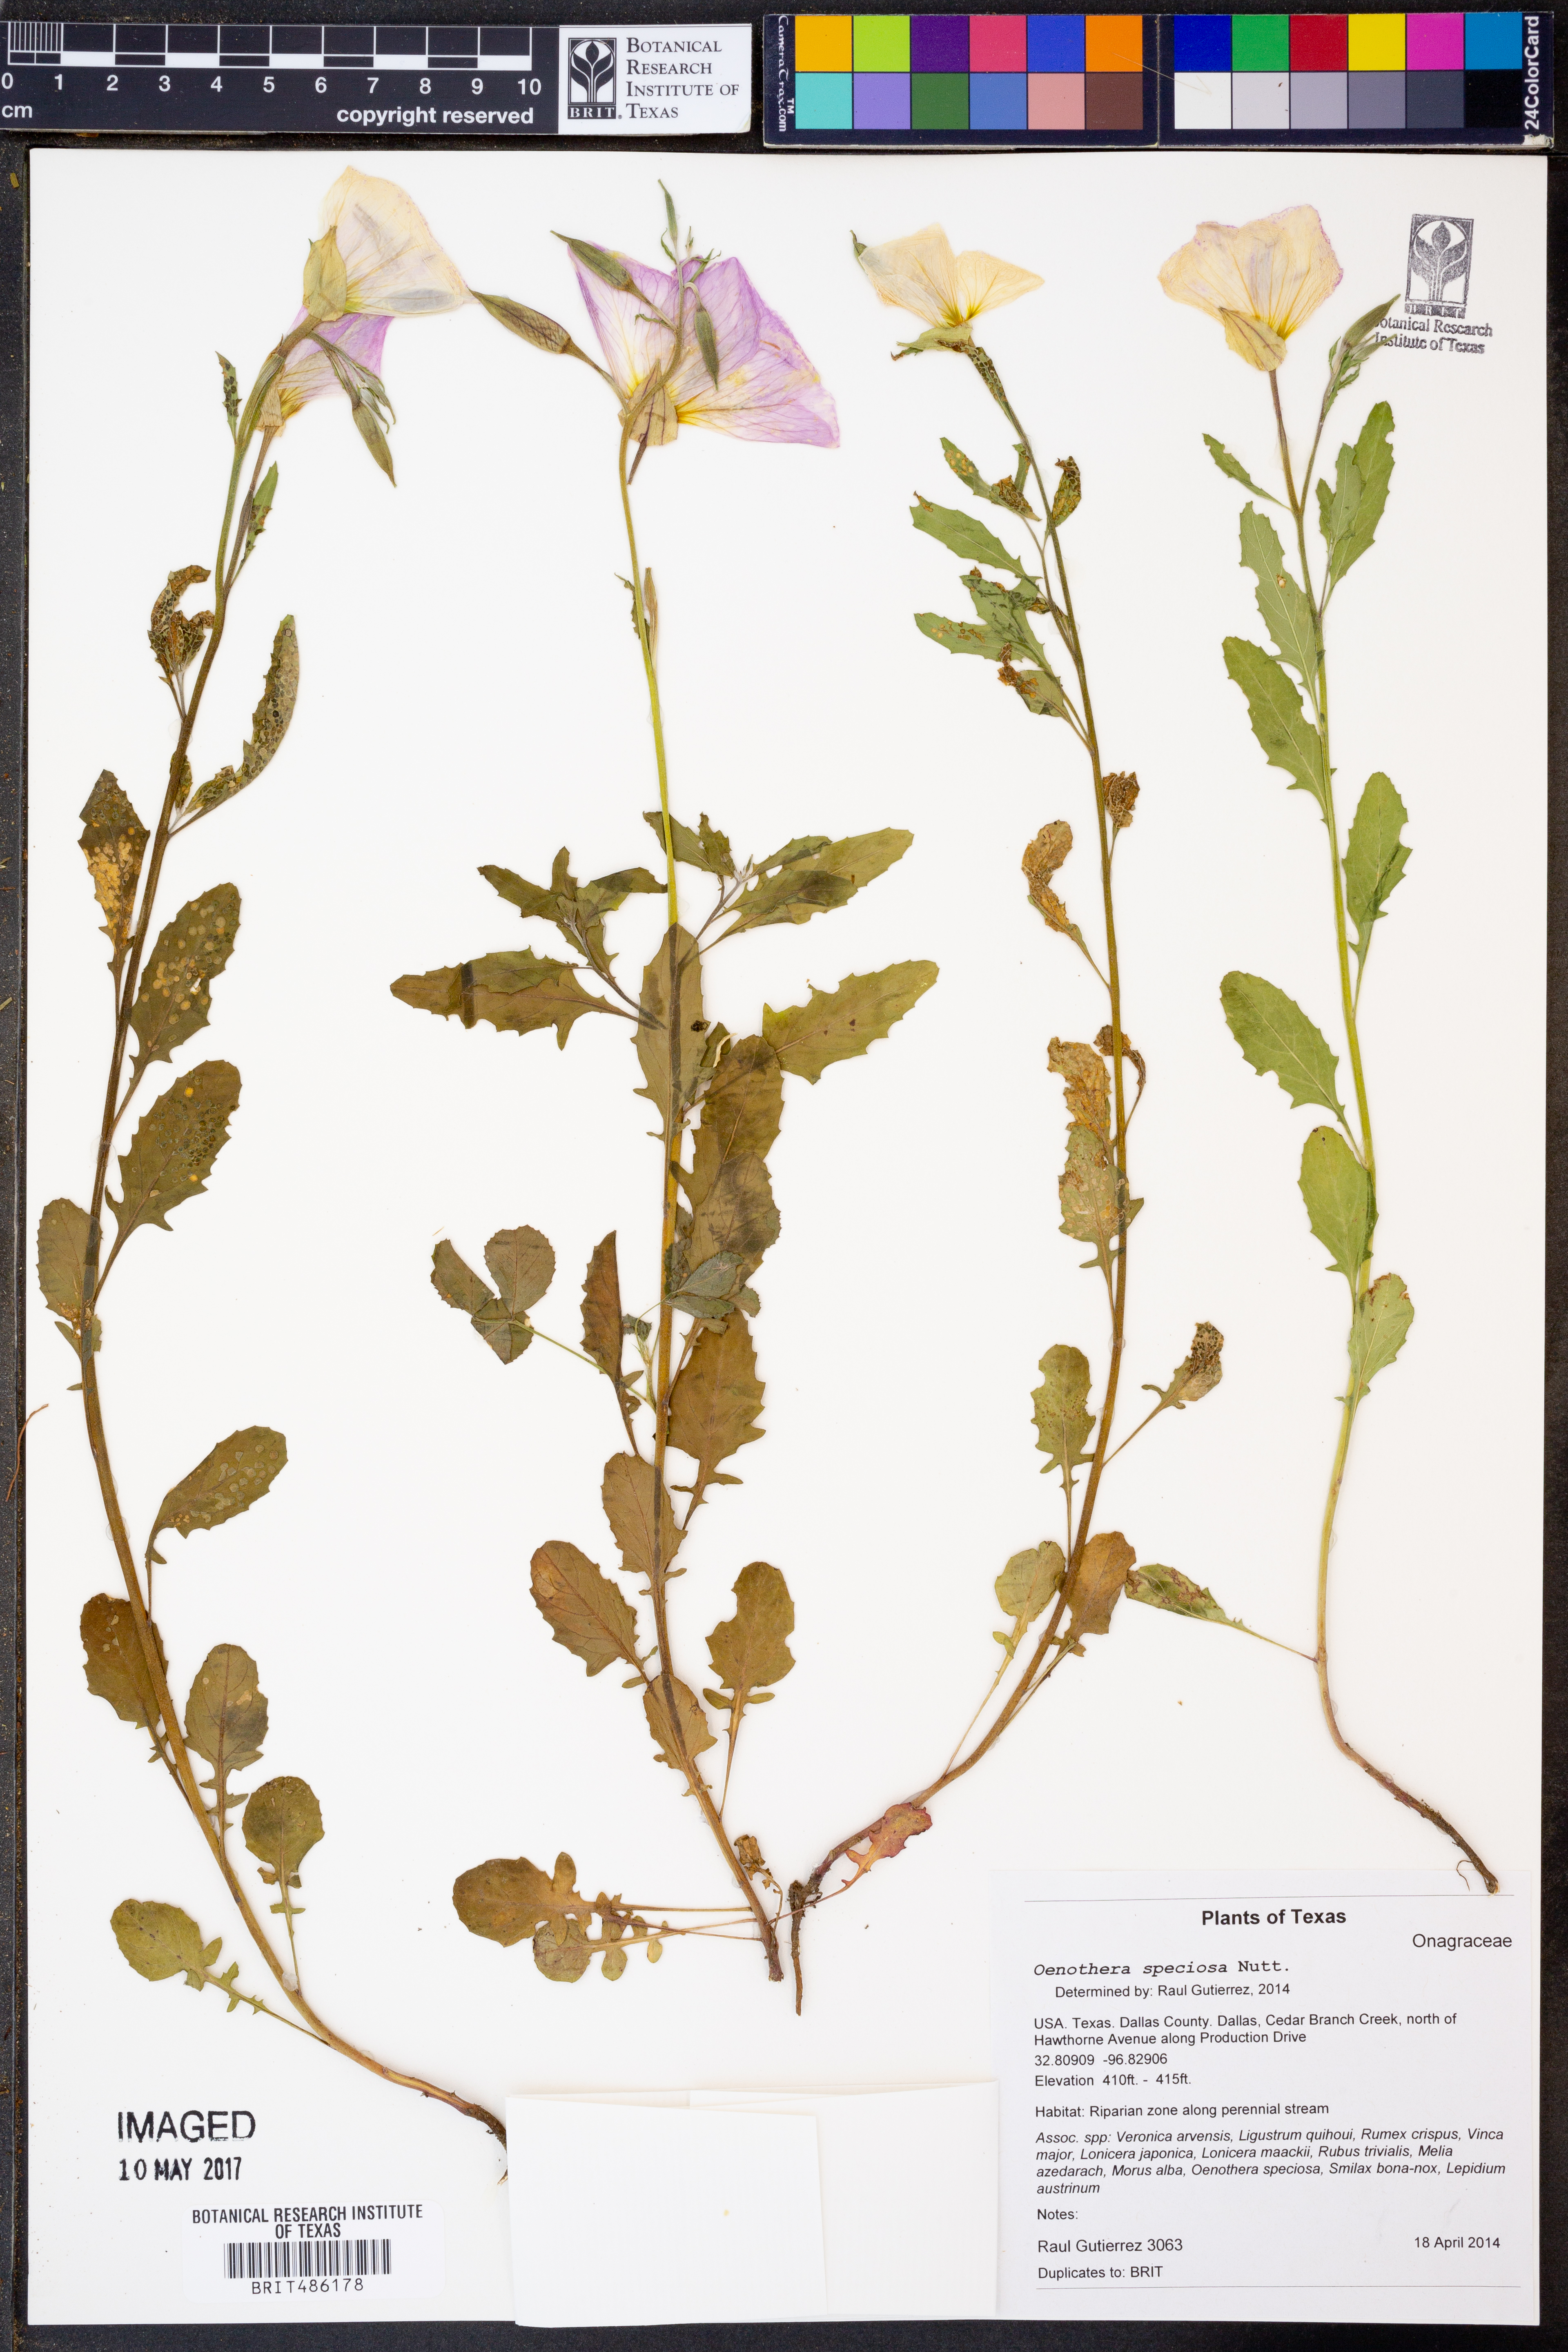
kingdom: Plantae
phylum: Tracheophyta
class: Magnoliopsida
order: Myrtales
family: Onagraceae
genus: Oenothera
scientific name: Oenothera speciosa
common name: White evening-primrose
